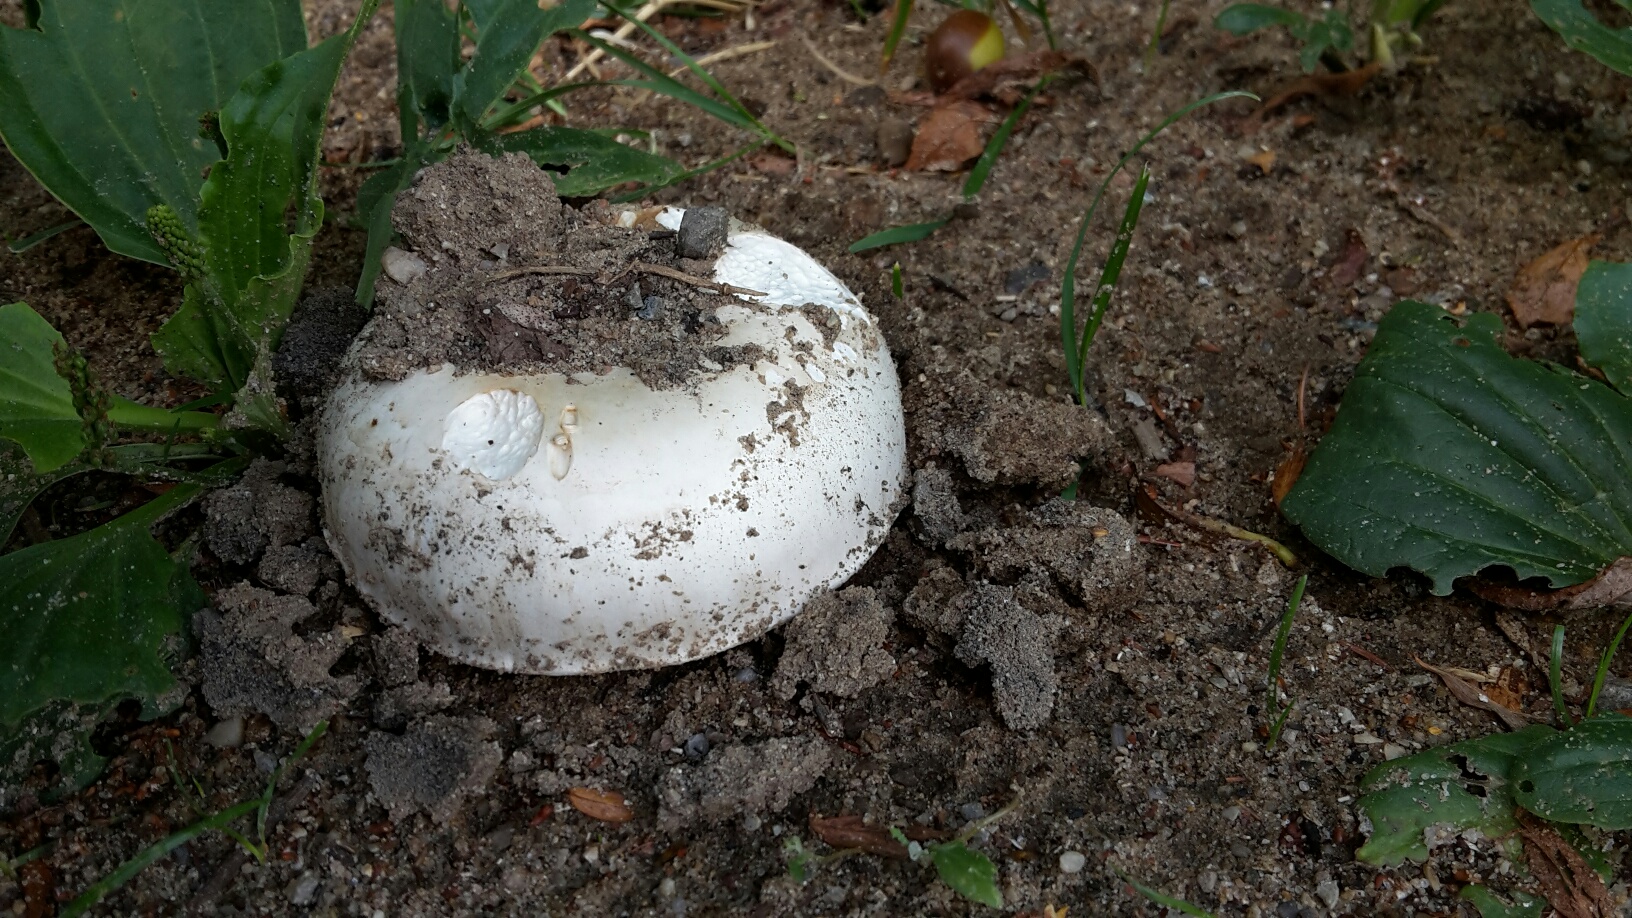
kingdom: Fungi
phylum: Basidiomycota
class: Agaricomycetes
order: Agaricales
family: Agaricaceae
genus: Agaricus
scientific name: Agaricus bitorquis
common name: vej-champignon
